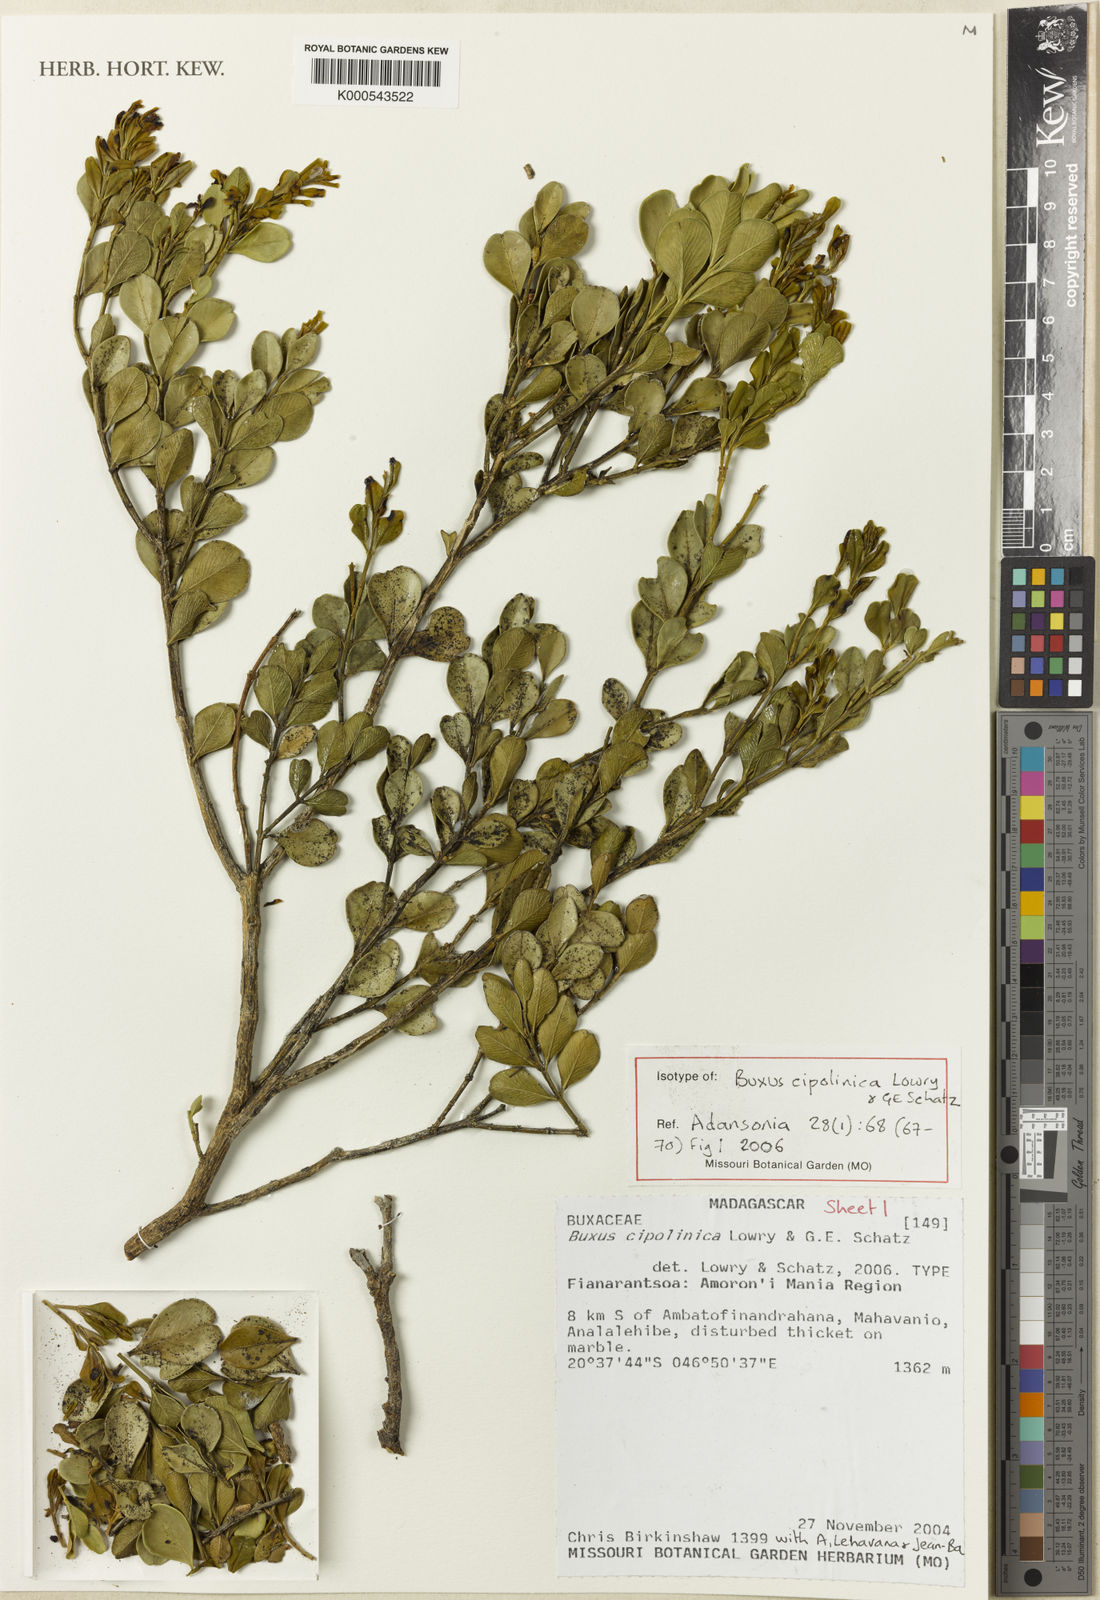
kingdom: Plantae
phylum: Tracheophyta
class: Magnoliopsida
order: Buxales
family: Buxaceae
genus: Buxus
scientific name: Buxus cipolinica
